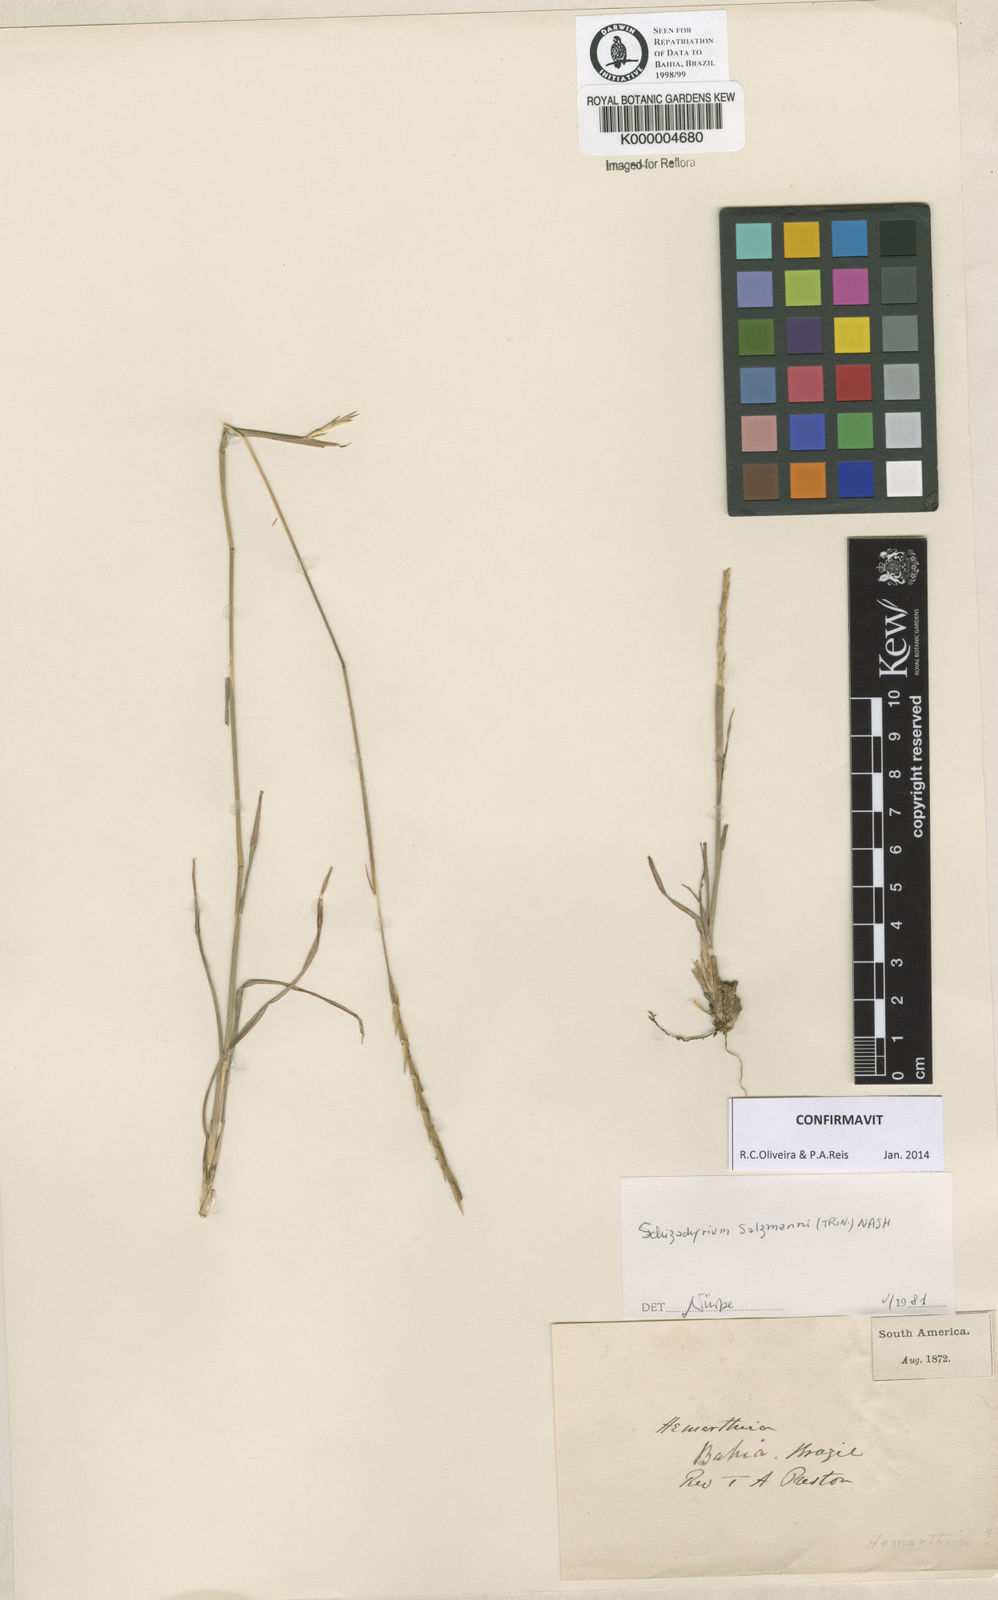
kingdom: Plantae
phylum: Tracheophyta
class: Liliopsida
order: Poales
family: Poaceae
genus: Andropogon
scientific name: Andropogon salzmannii
